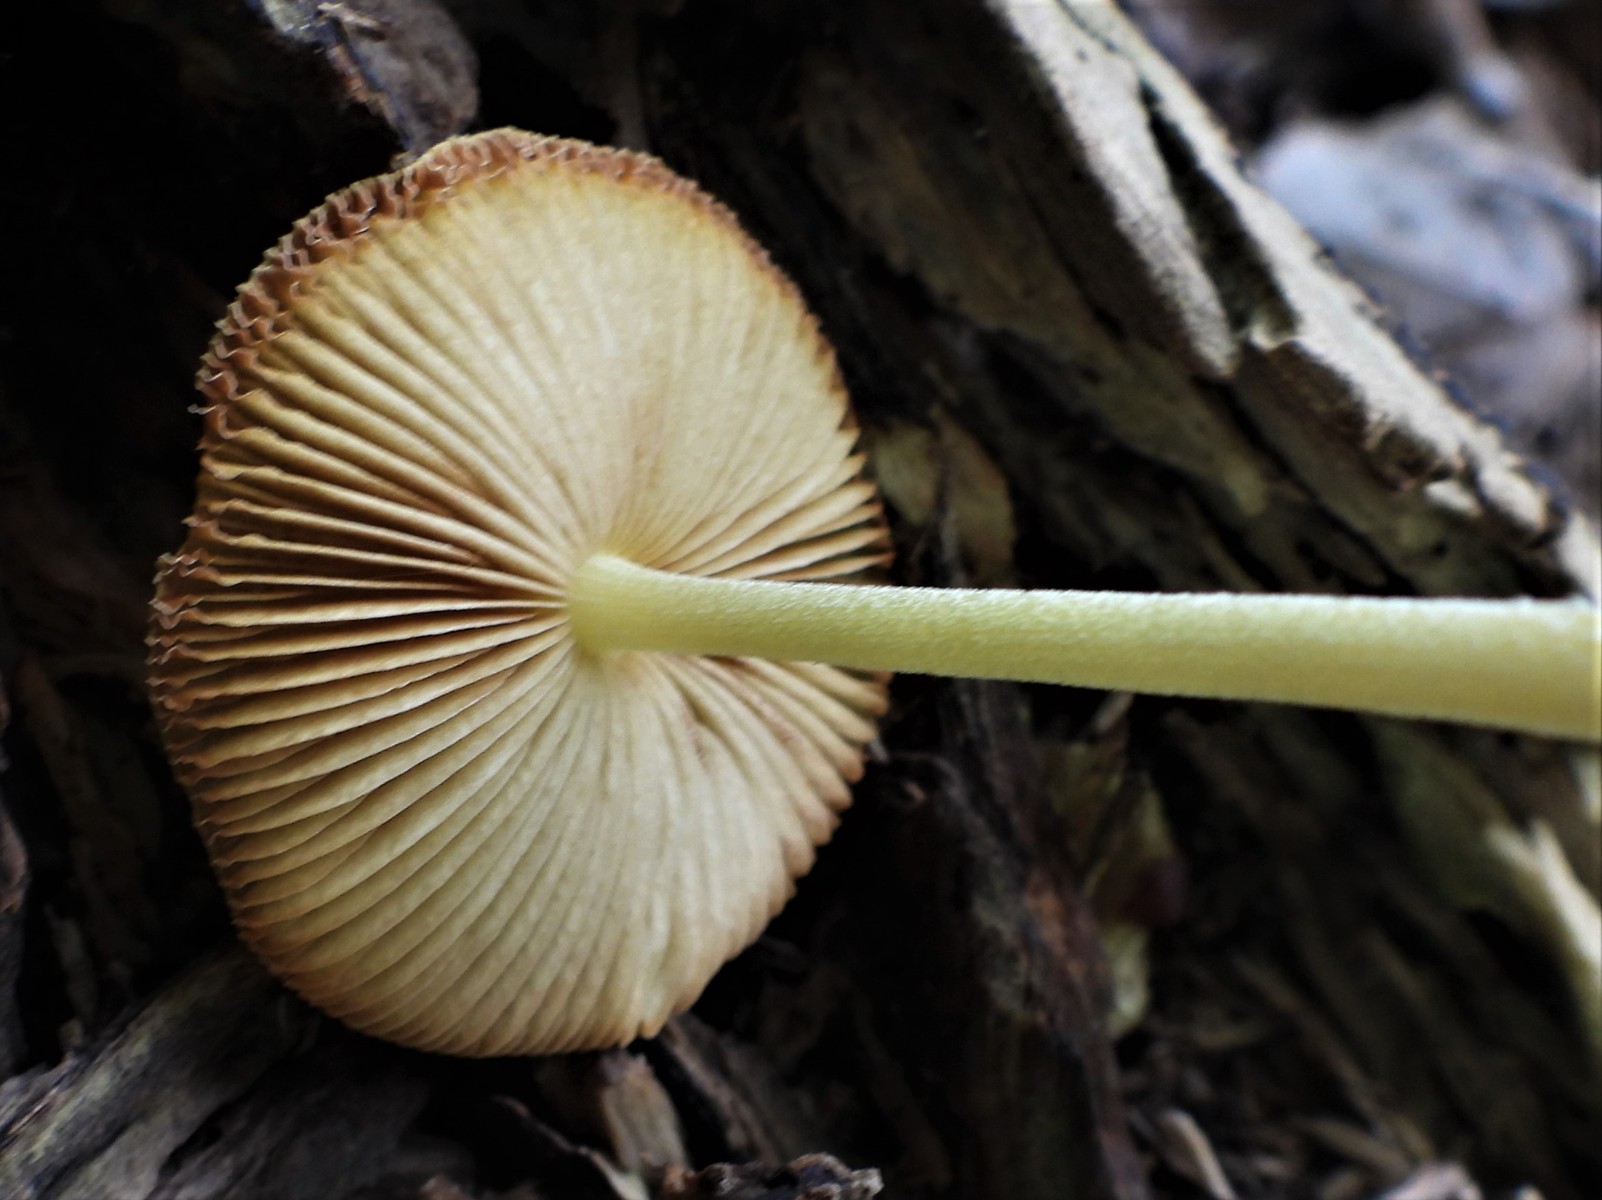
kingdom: Fungi
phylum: Basidiomycota
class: Agaricomycetes
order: Agaricales
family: Bolbitiaceae
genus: Bolbitius
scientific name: Bolbitius titubans
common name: almindelig gulhat
